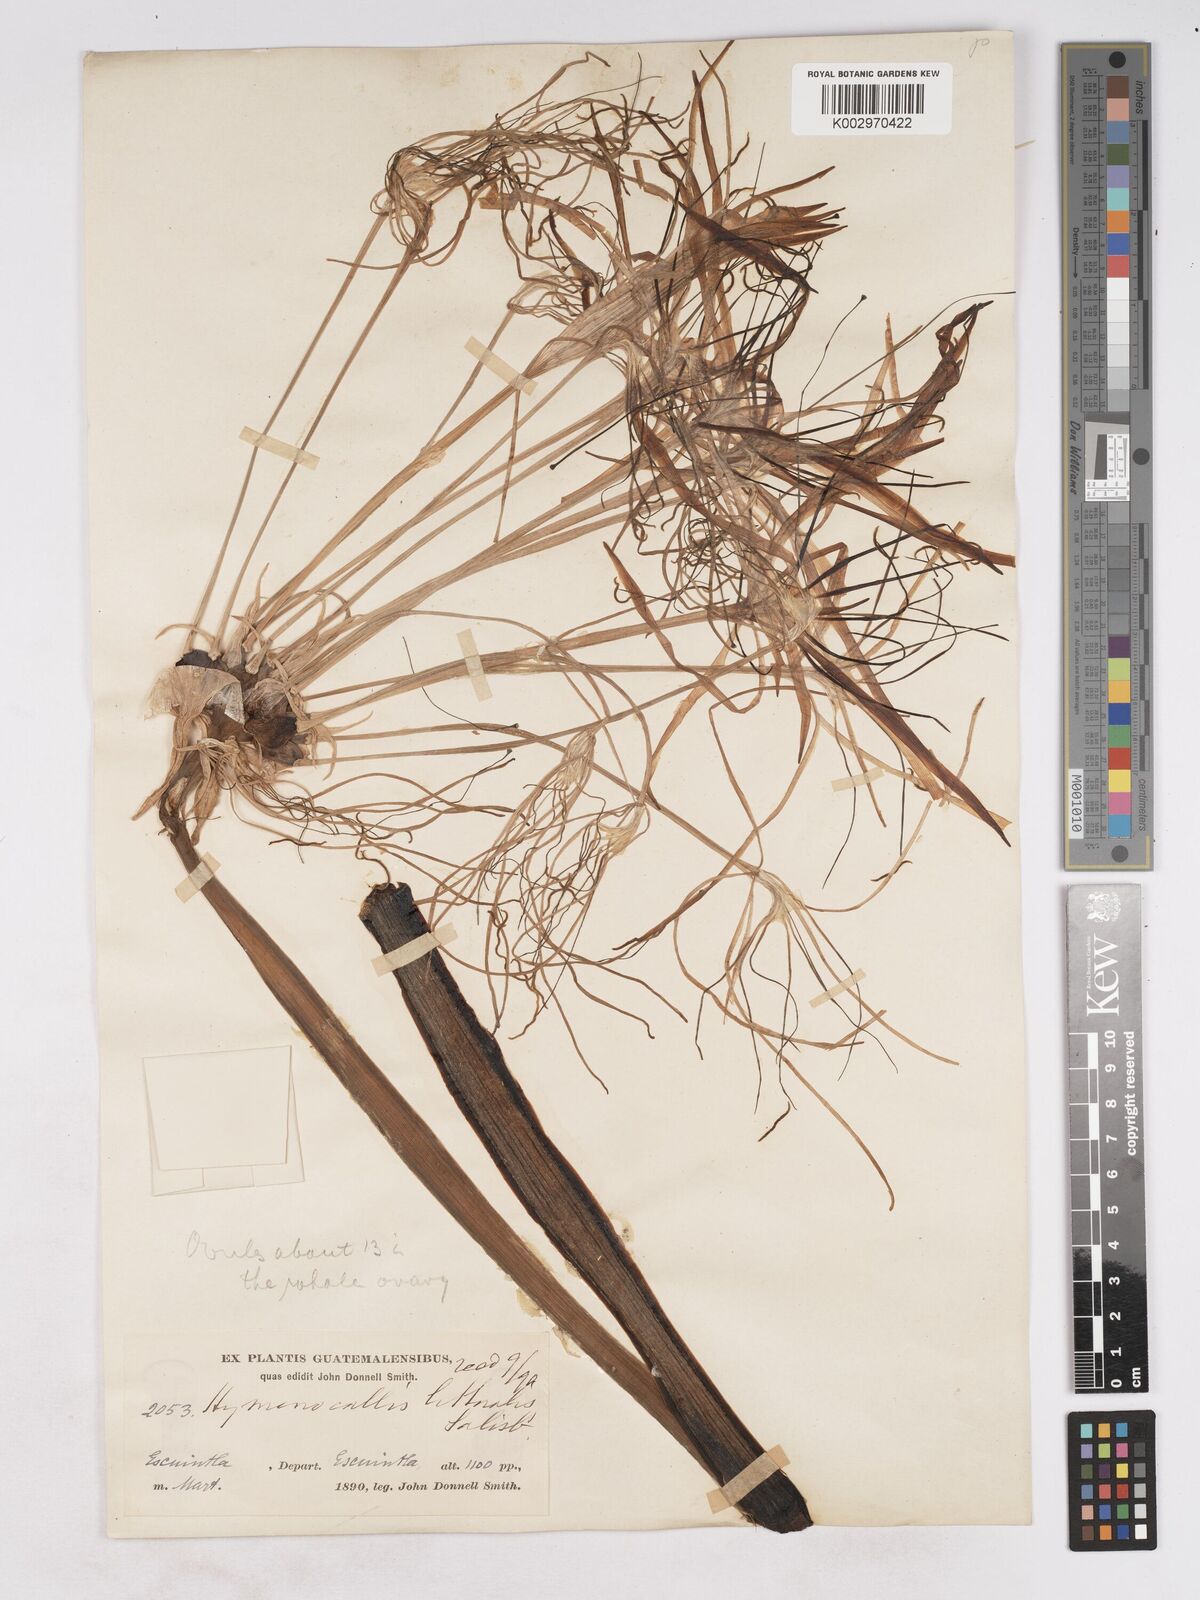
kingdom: Plantae
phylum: Tracheophyta
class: Liliopsida
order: Asparagales
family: Amaryllidaceae
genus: Hymenocallis
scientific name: Hymenocallis littoralis
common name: Beach spiderlily
